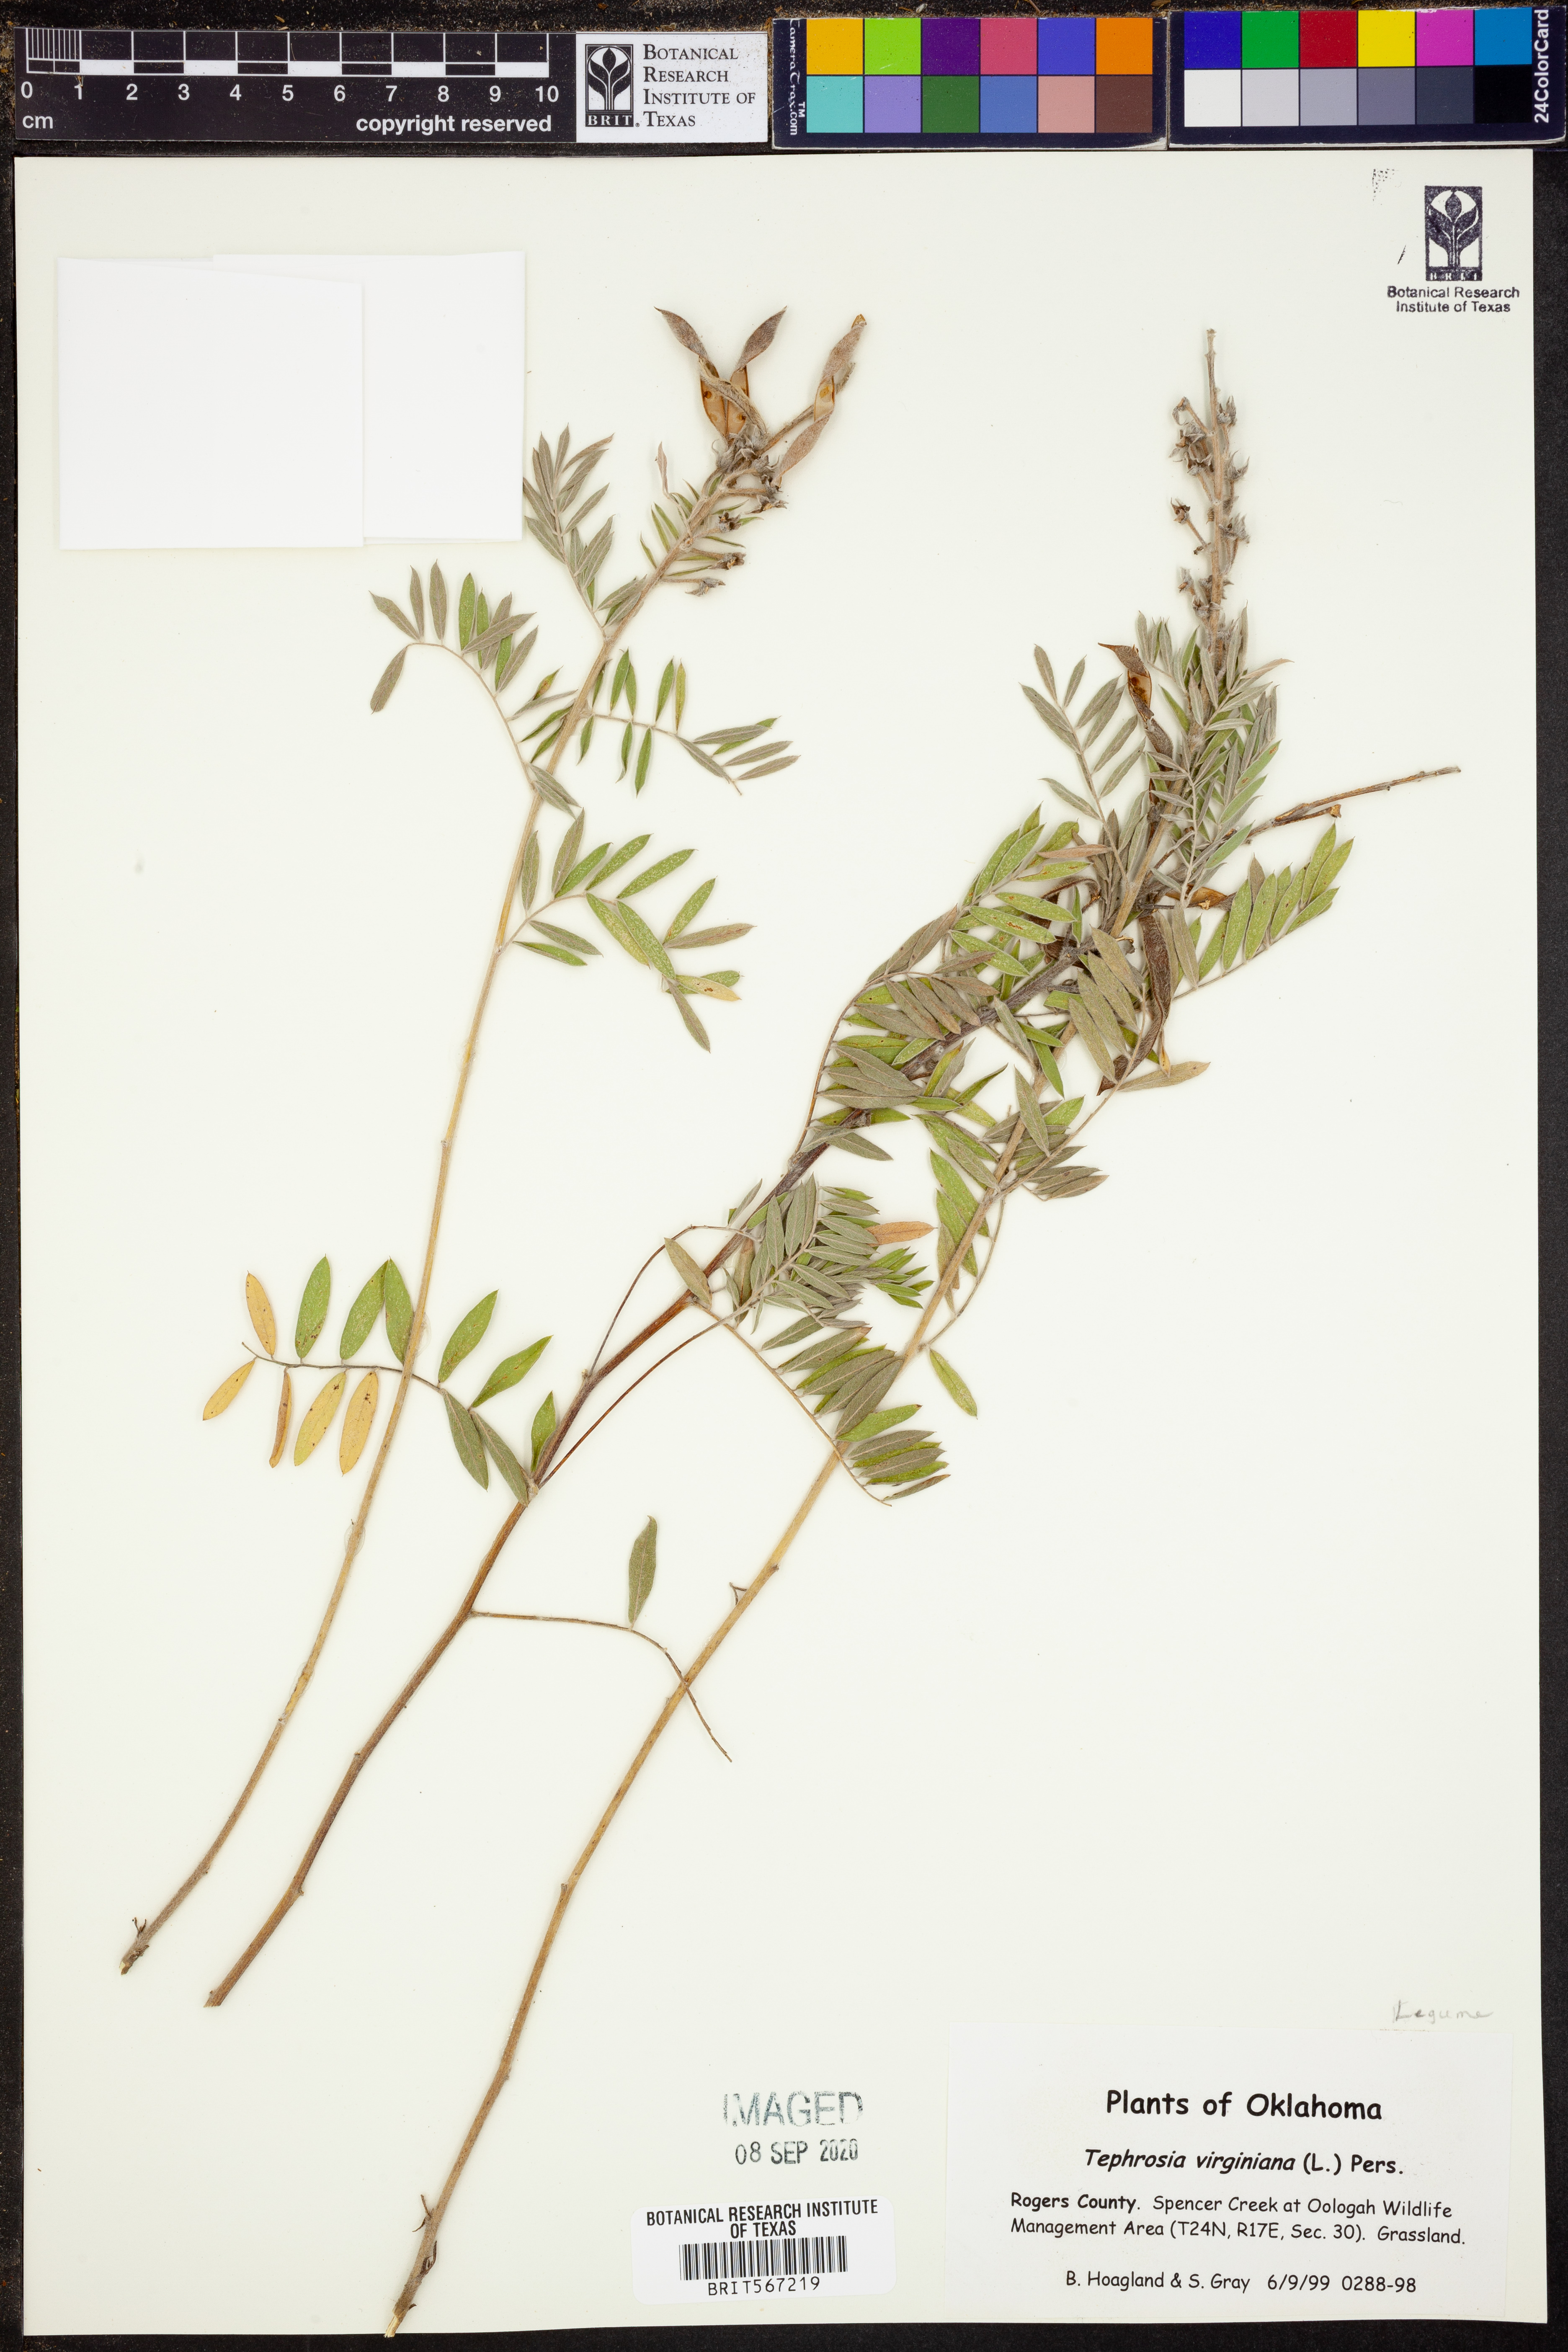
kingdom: Plantae
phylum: Tracheophyta
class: Magnoliopsida
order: Fabales
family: Fabaceae
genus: Tephrosia
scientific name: Tephrosia virginiana
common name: Rabbit-pea
